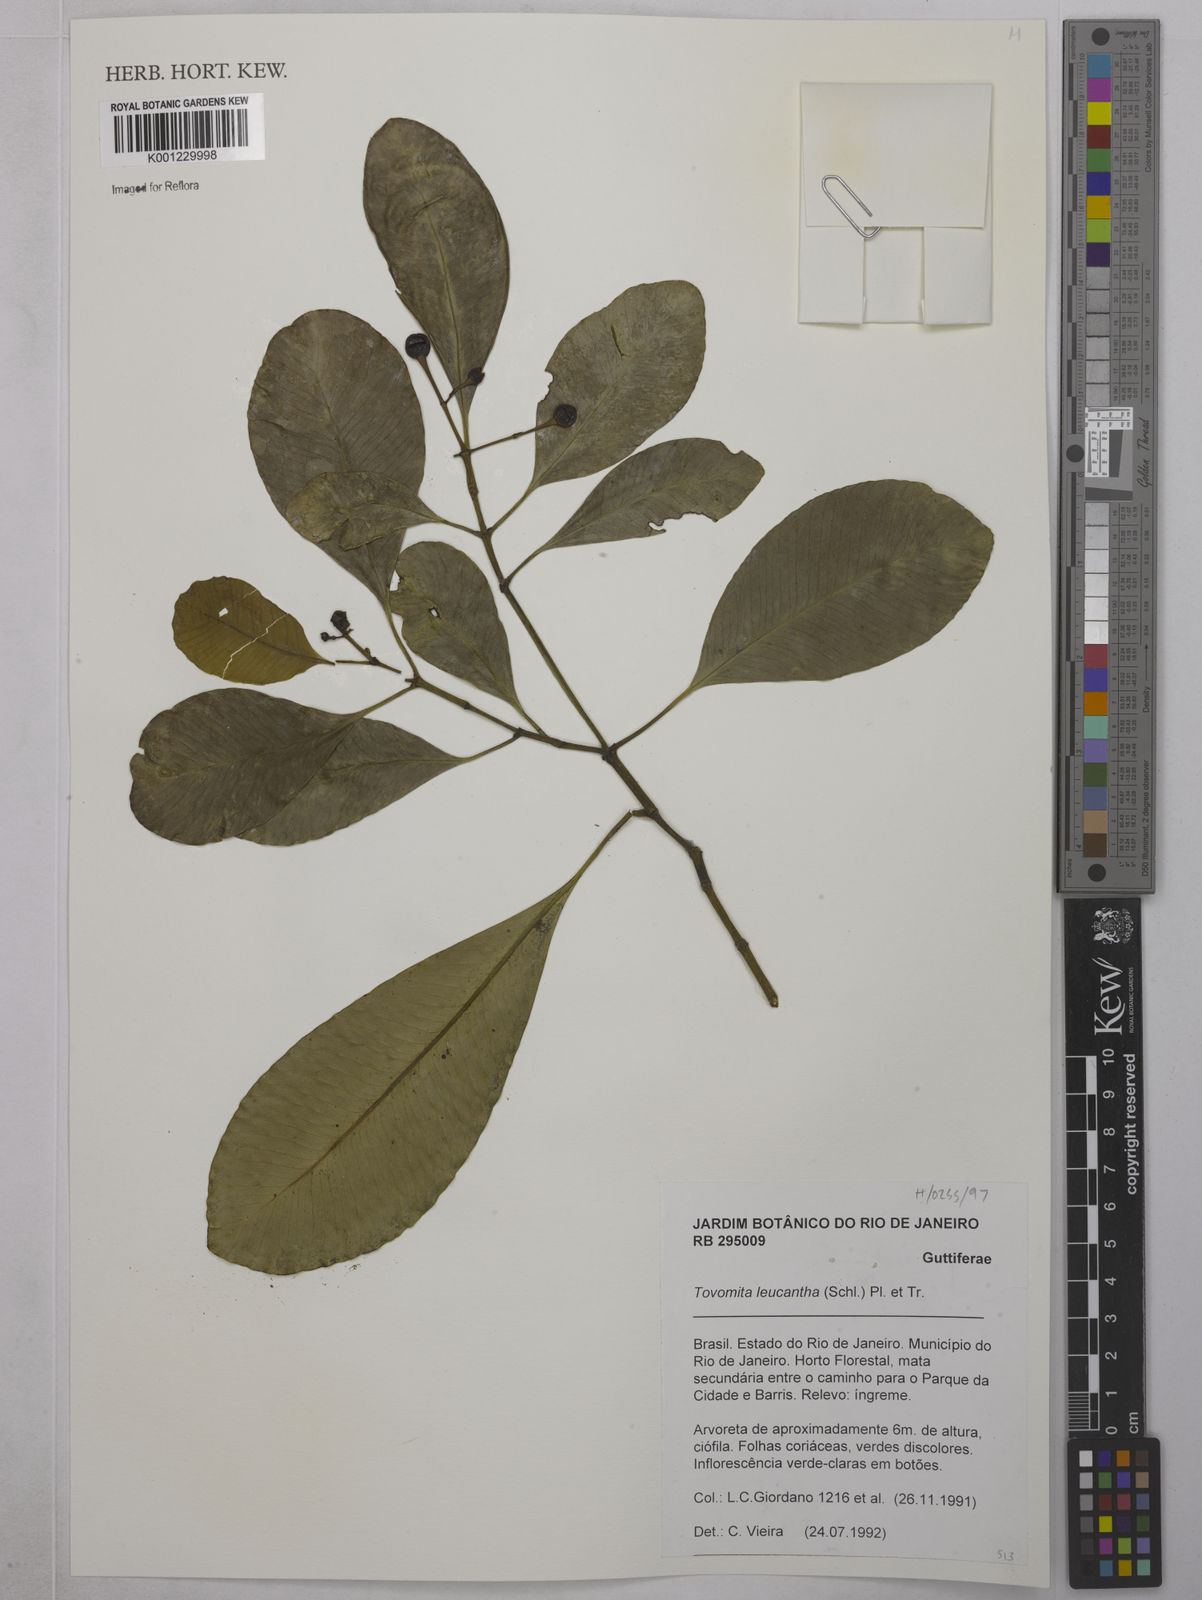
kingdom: Plantae
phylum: Tracheophyta
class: Magnoliopsida
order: Malpighiales
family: Clusiaceae
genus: Tovomita
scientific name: Tovomita leucantha
